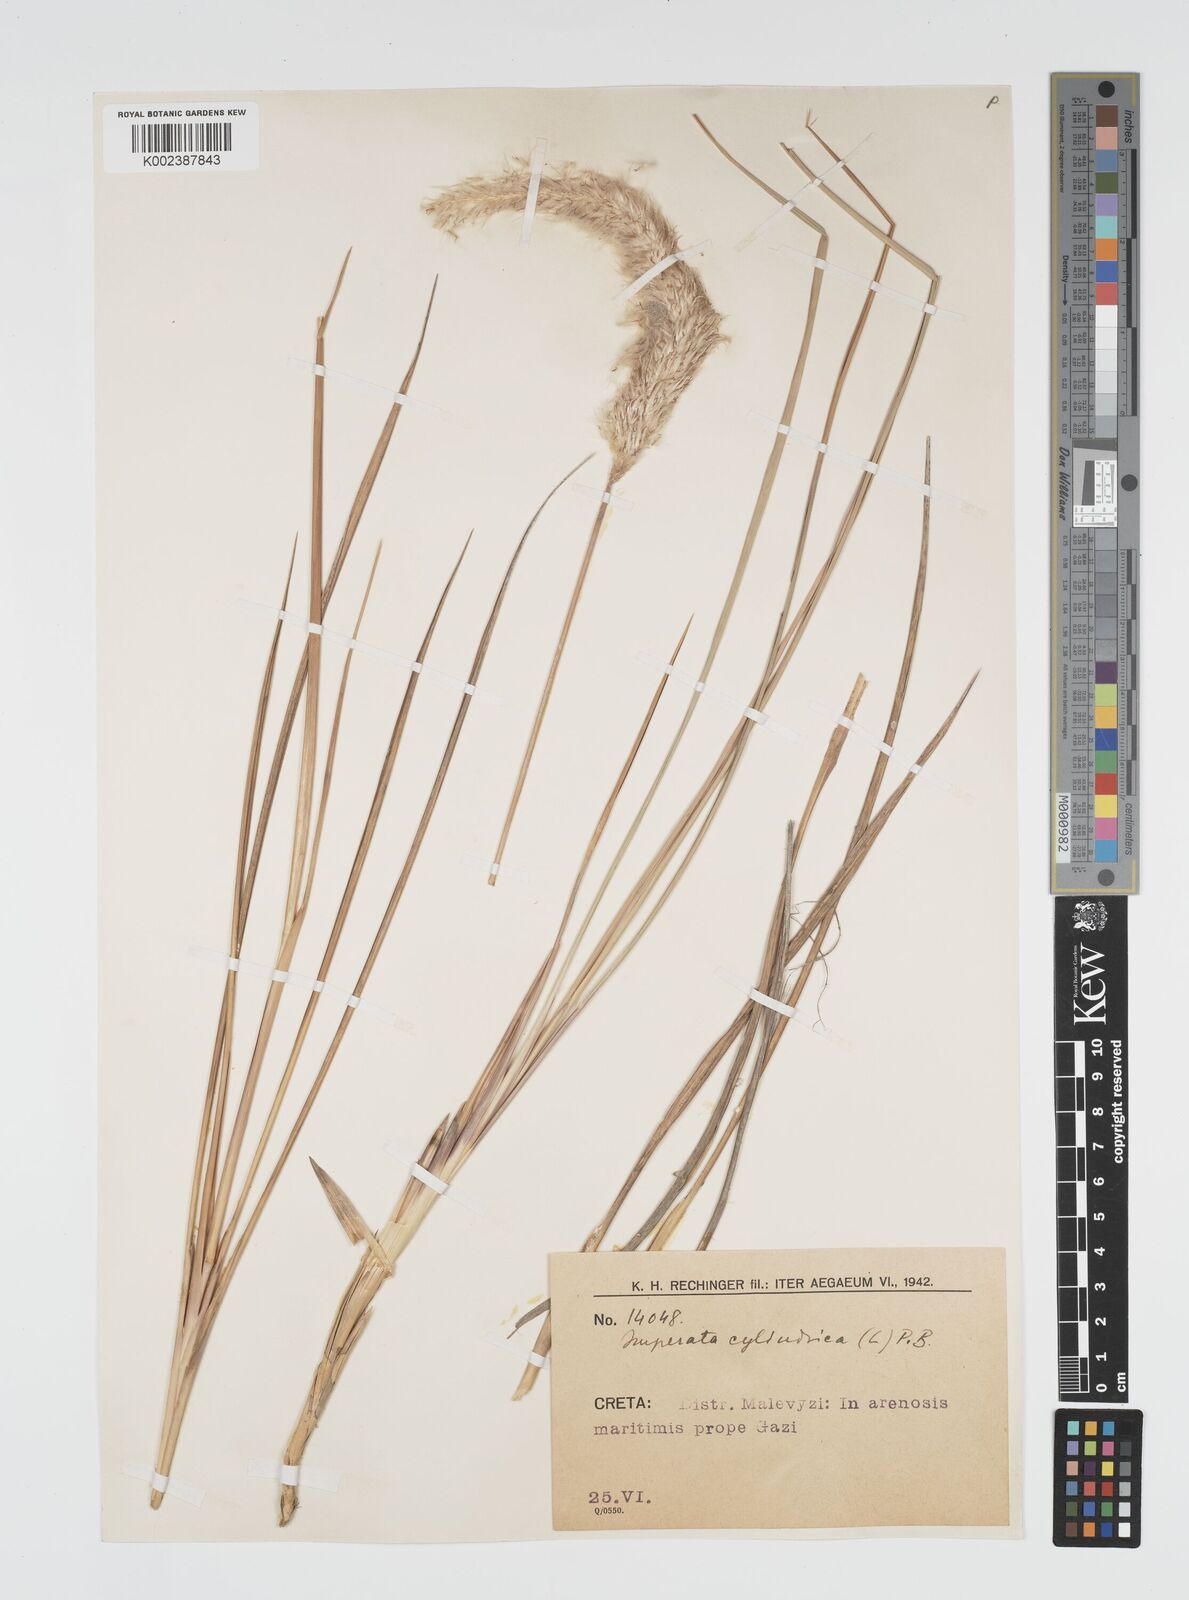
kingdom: Plantae
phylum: Tracheophyta
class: Liliopsida
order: Poales
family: Poaceae
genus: Imperata
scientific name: Imperata cylindrica
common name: Cogongrass
